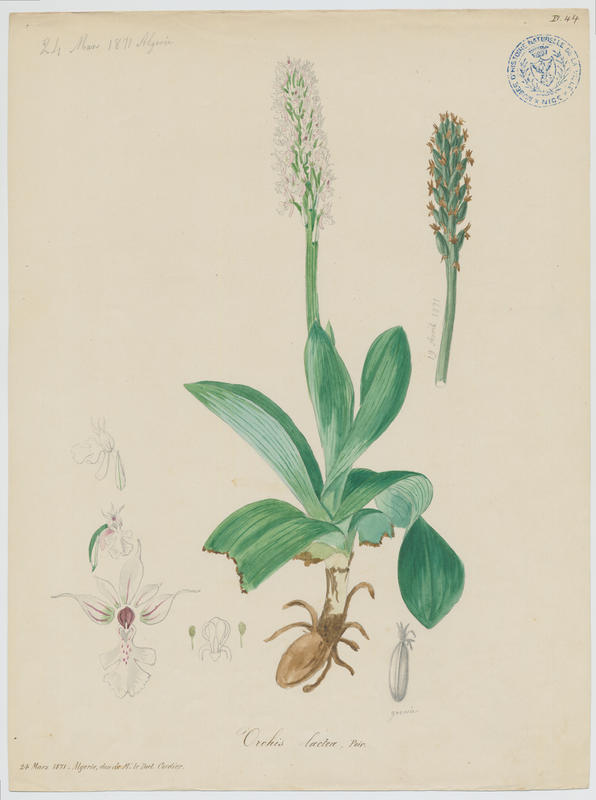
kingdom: Plantae
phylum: Tracheophyta
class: Liliopsida
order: Asparagales
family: Orchidaceae
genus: Neotinea
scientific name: Neotinea lactea
